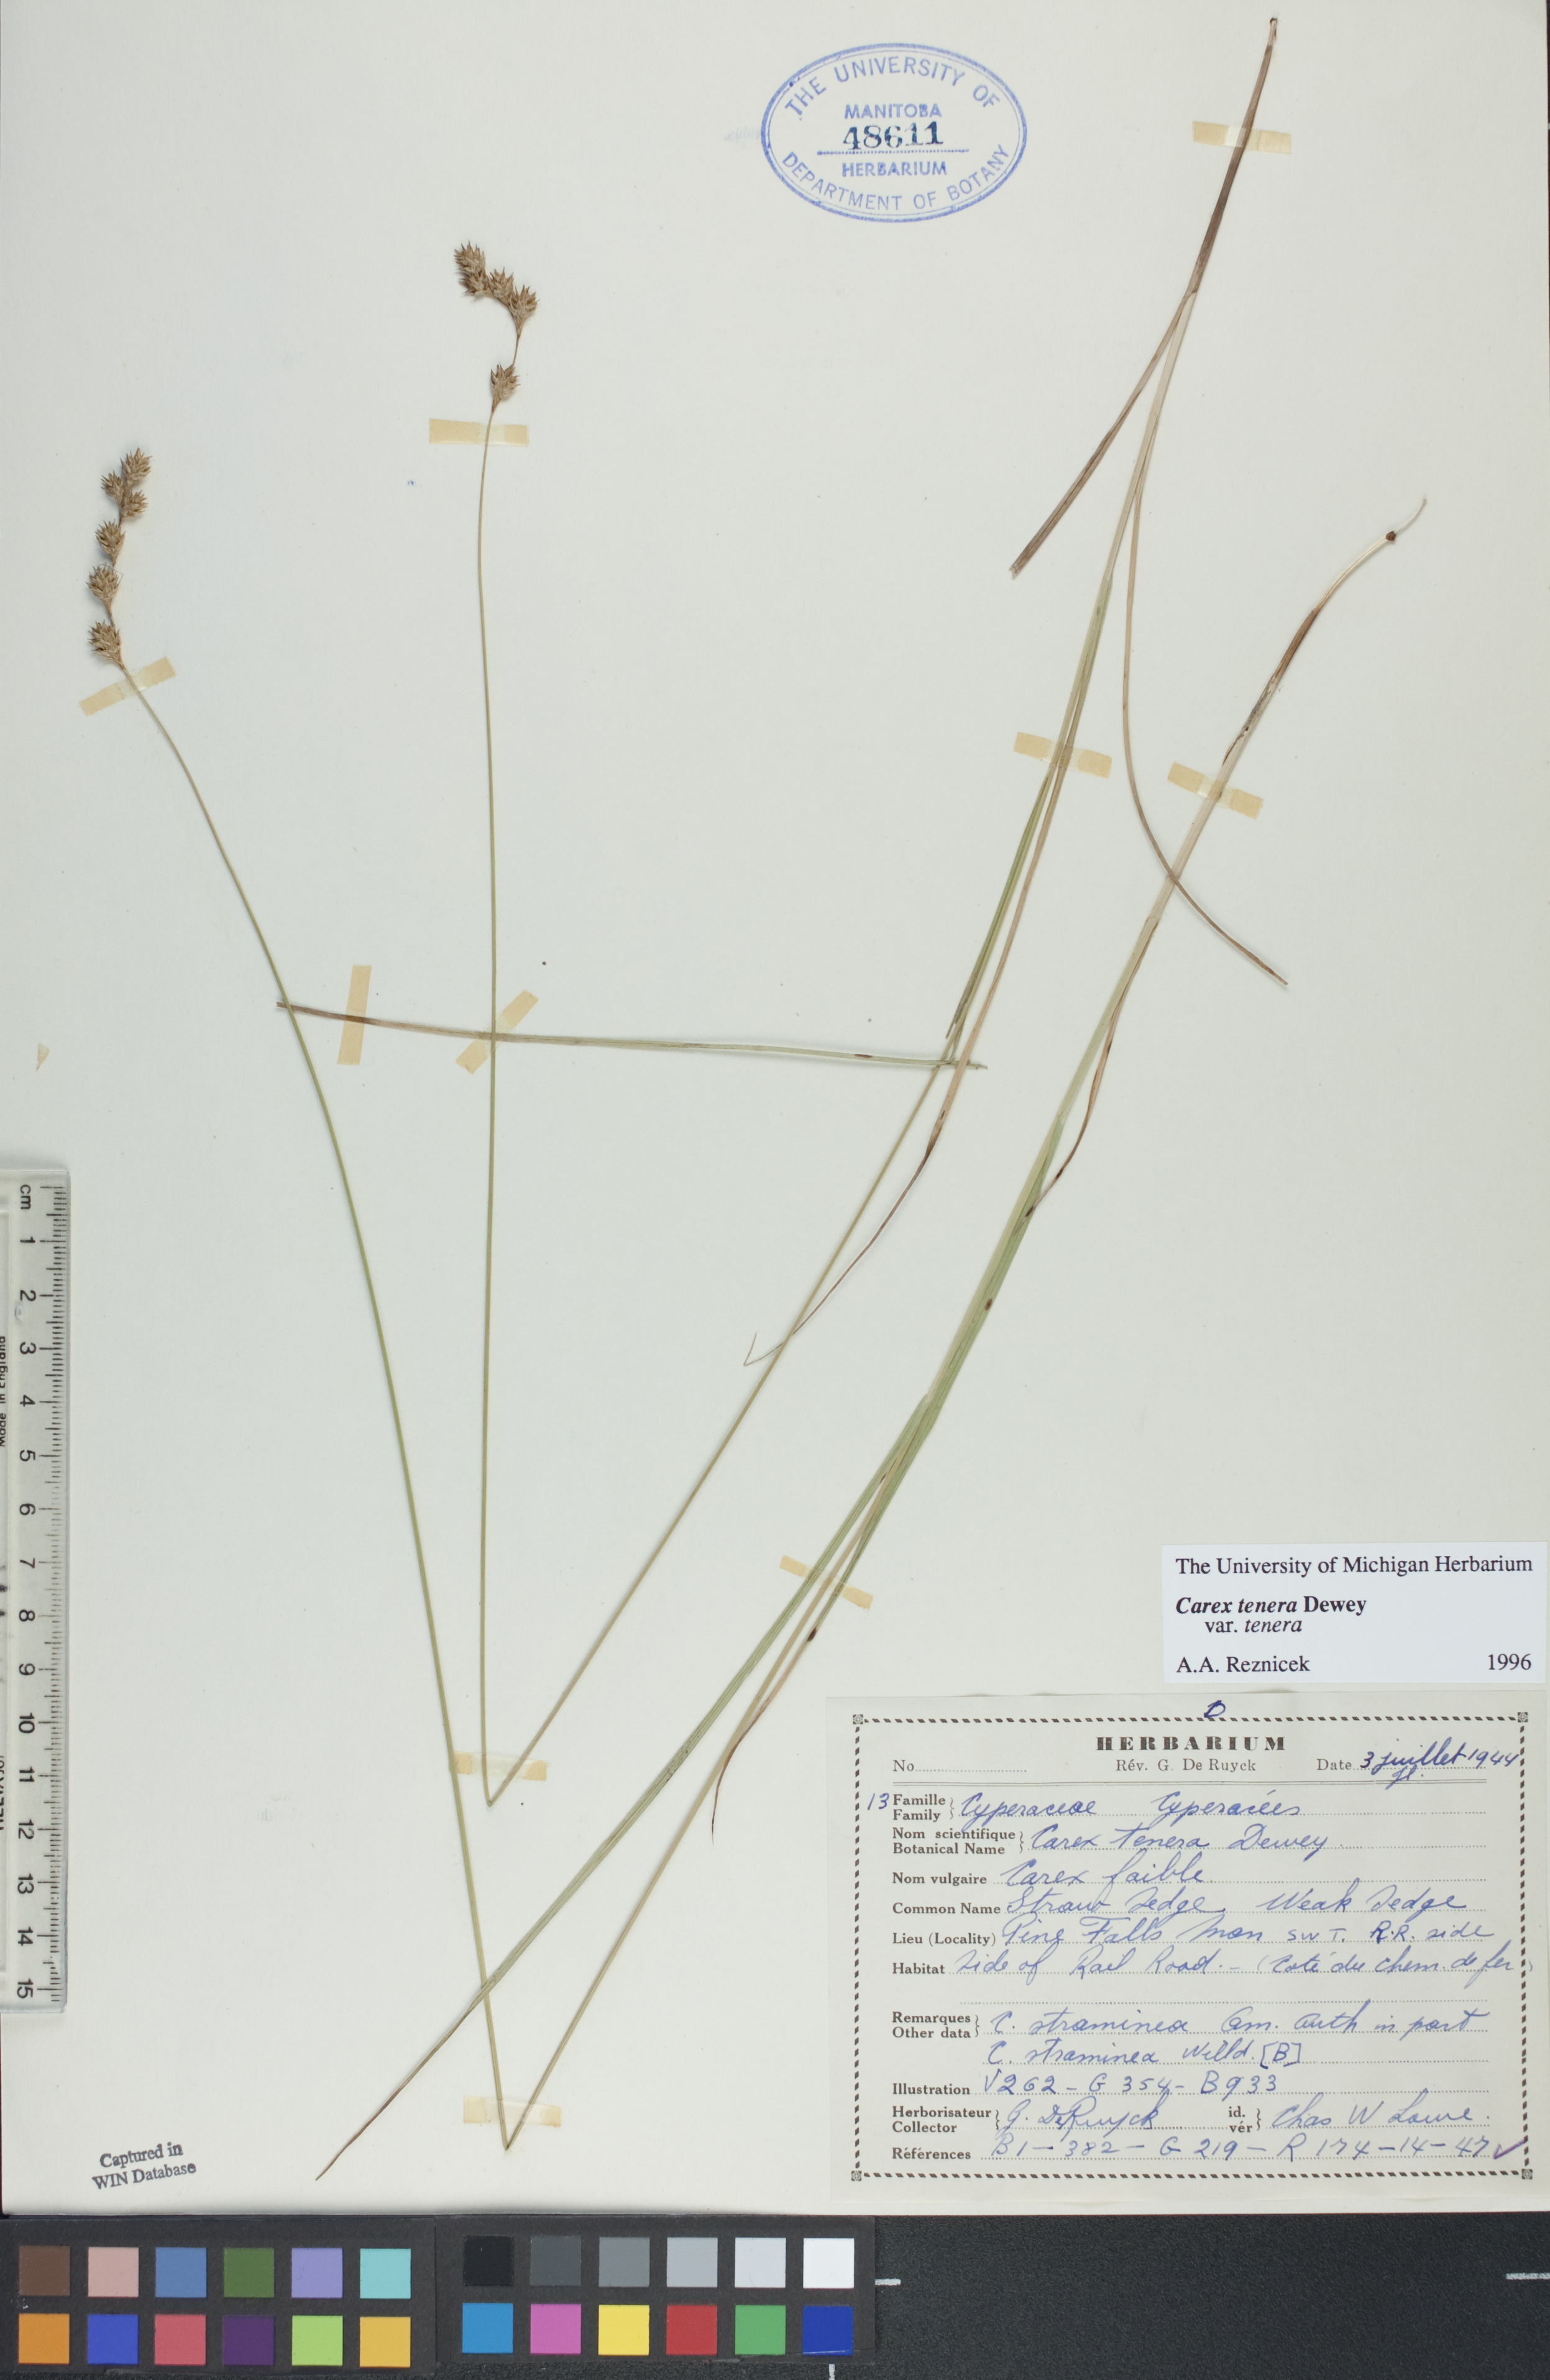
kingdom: Plantae
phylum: Tracheophyta
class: Liliopsida
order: Poales
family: Cyperaceae
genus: Carex
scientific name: Carex tenera
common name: Broad-fruited sedge
